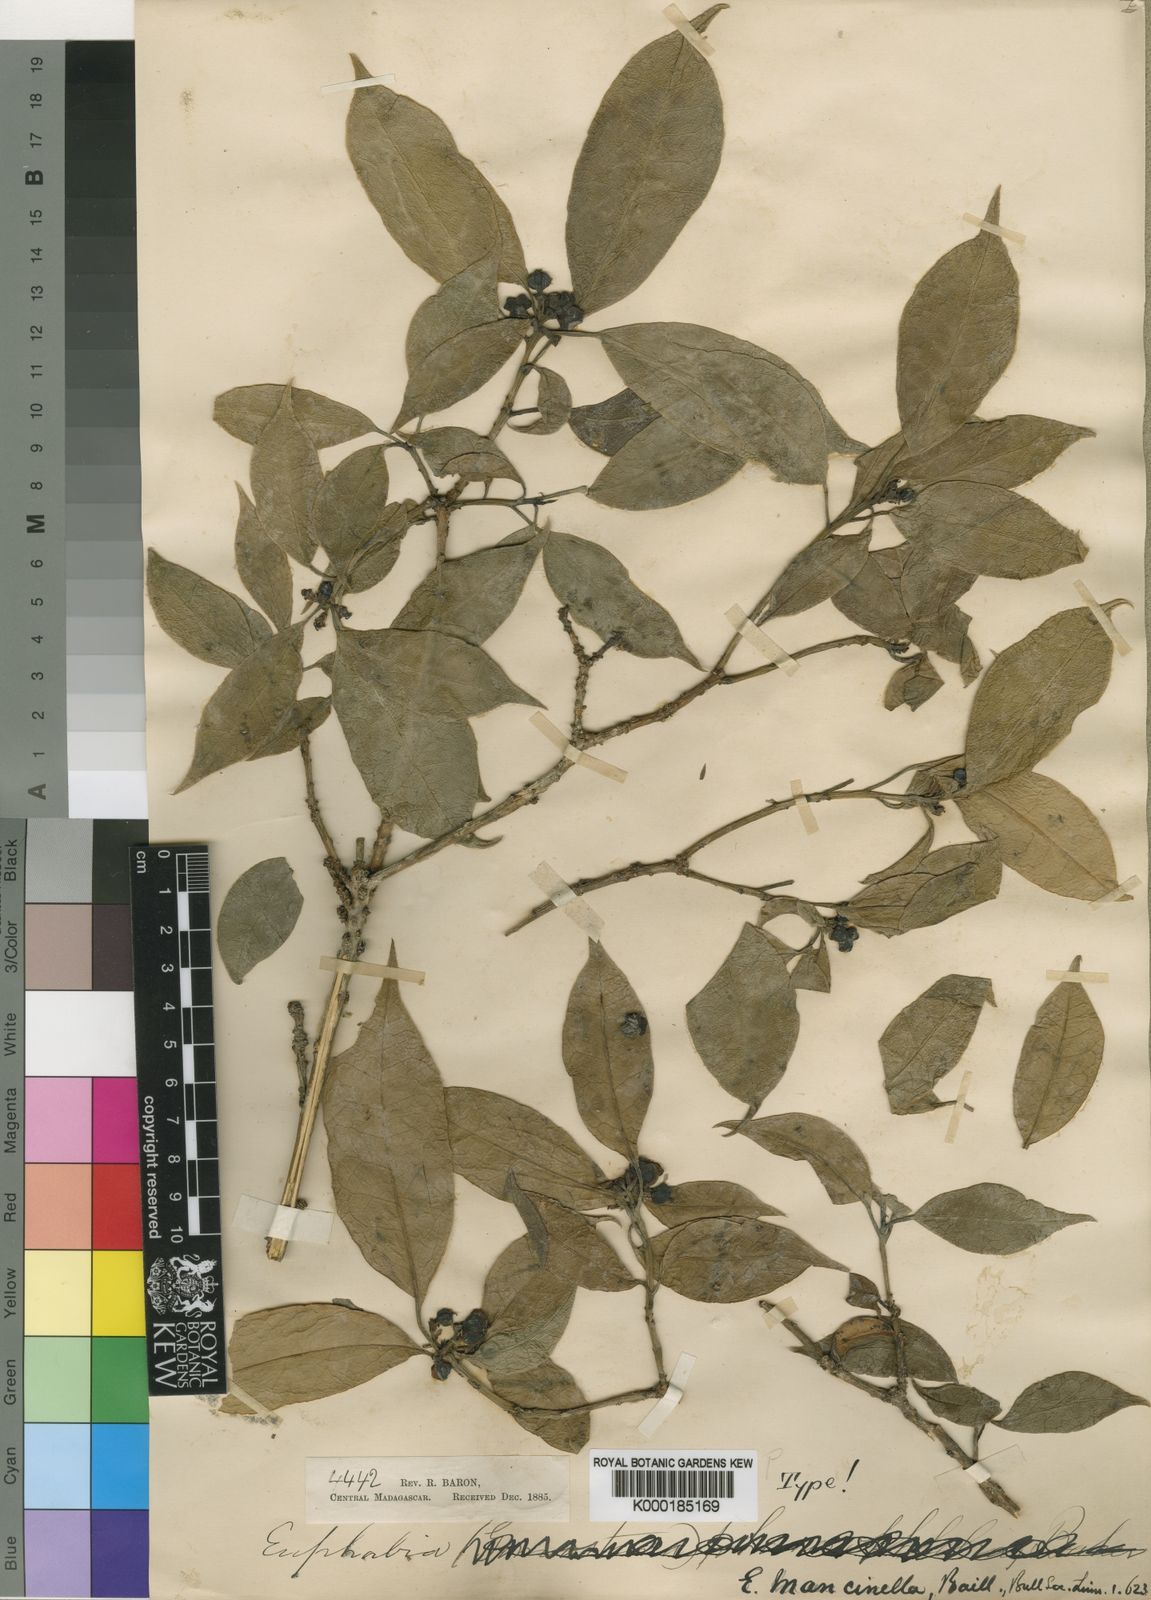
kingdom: Plantae
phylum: Tracheophyta
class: Magnoliopsida
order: Malpighiales
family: Euphorbiaceae
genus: Euphorbia
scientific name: Euphorbia adenopoda
